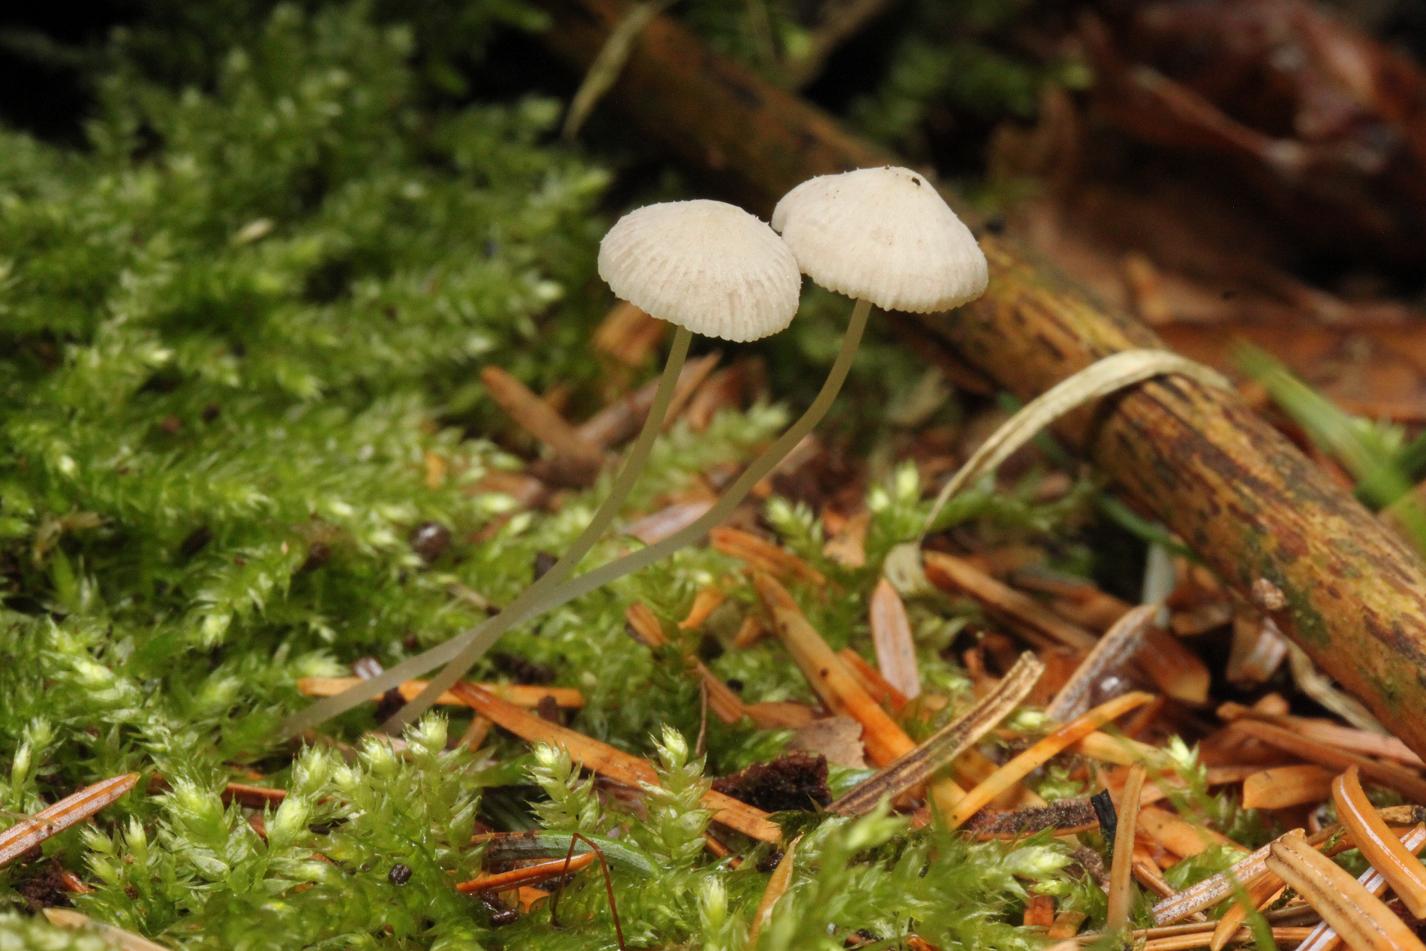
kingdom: Fungi
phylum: Basidiomycota
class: Agaricomycetes
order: Agaricales
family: Mycenaceae
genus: Mycena
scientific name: Mycena stylobates
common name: fureskivet huesvamp
